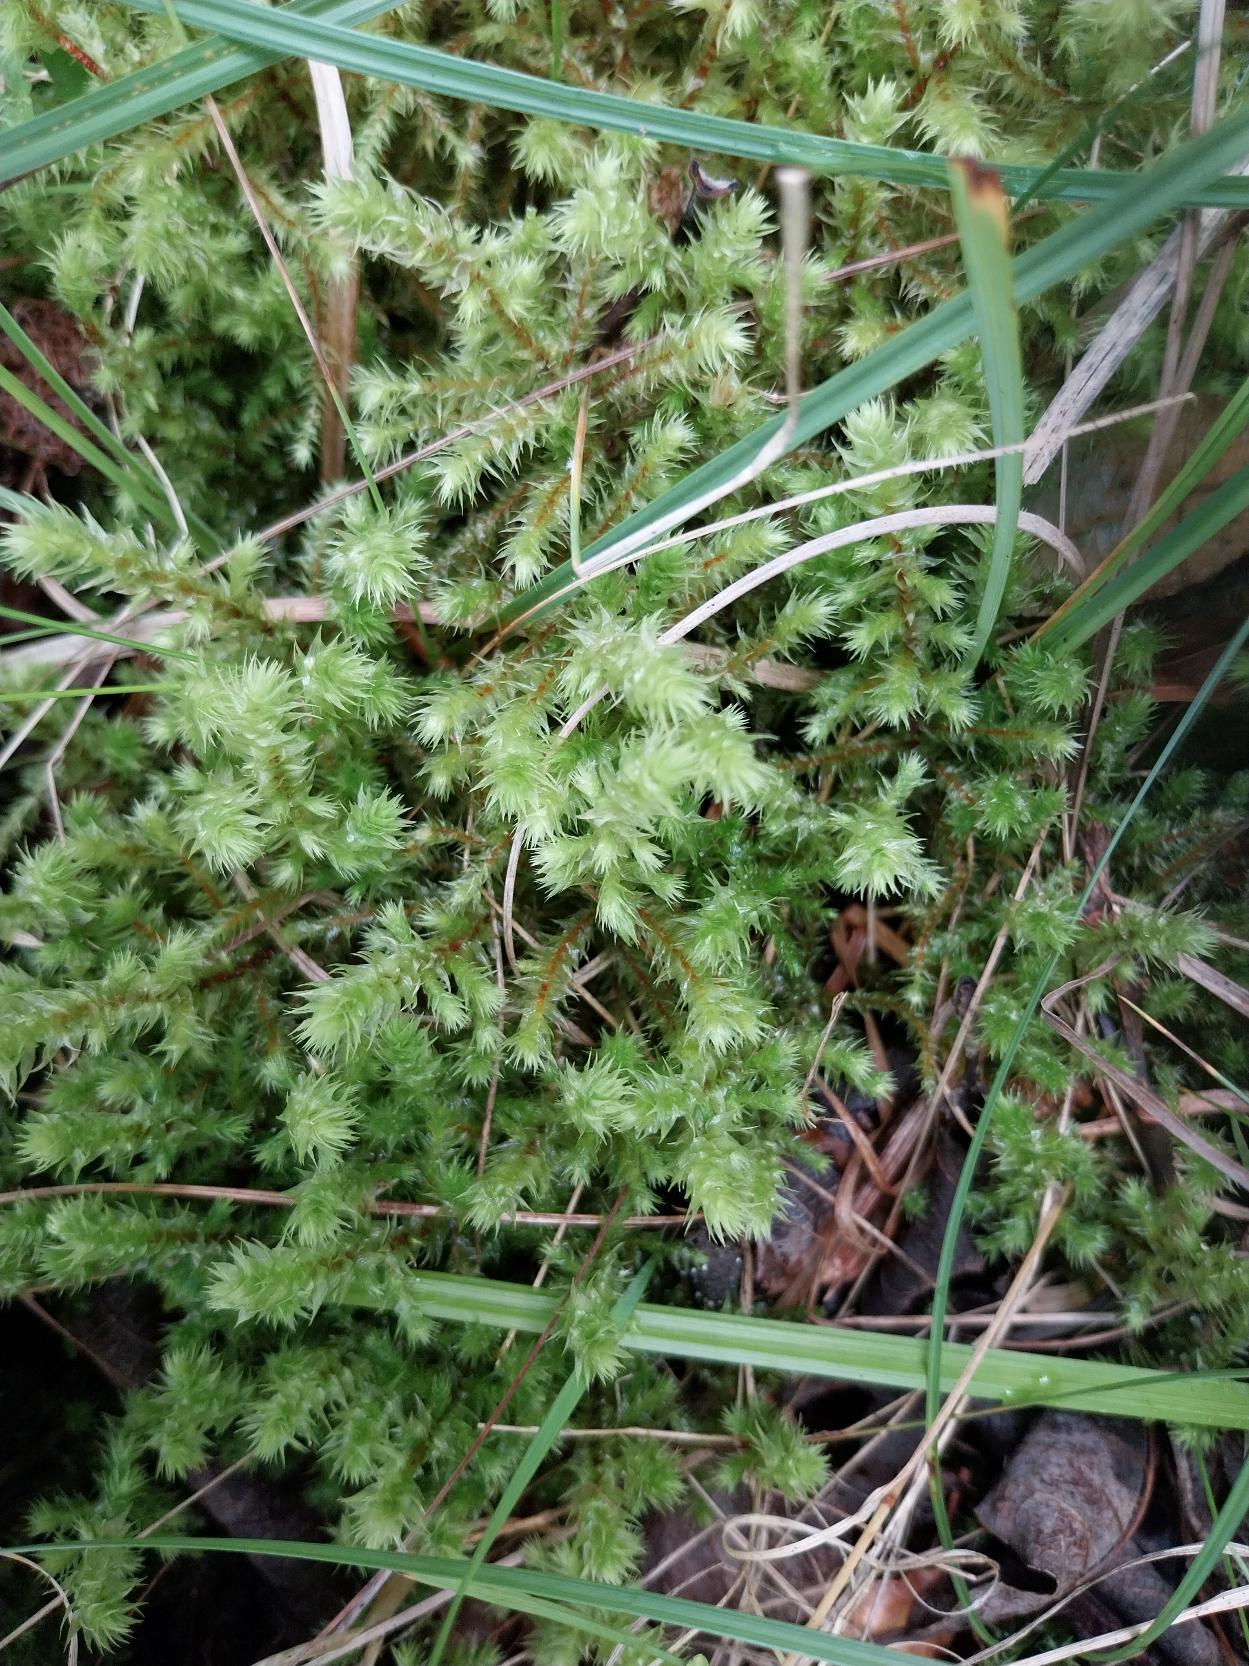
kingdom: Plantae
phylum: Bryophyta
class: Bryopsida
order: Hypnales
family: Hylocomiaceae
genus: Hylocomiadelphus
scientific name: Hylocomiadelphus triquetrus
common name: Stor kransemos
